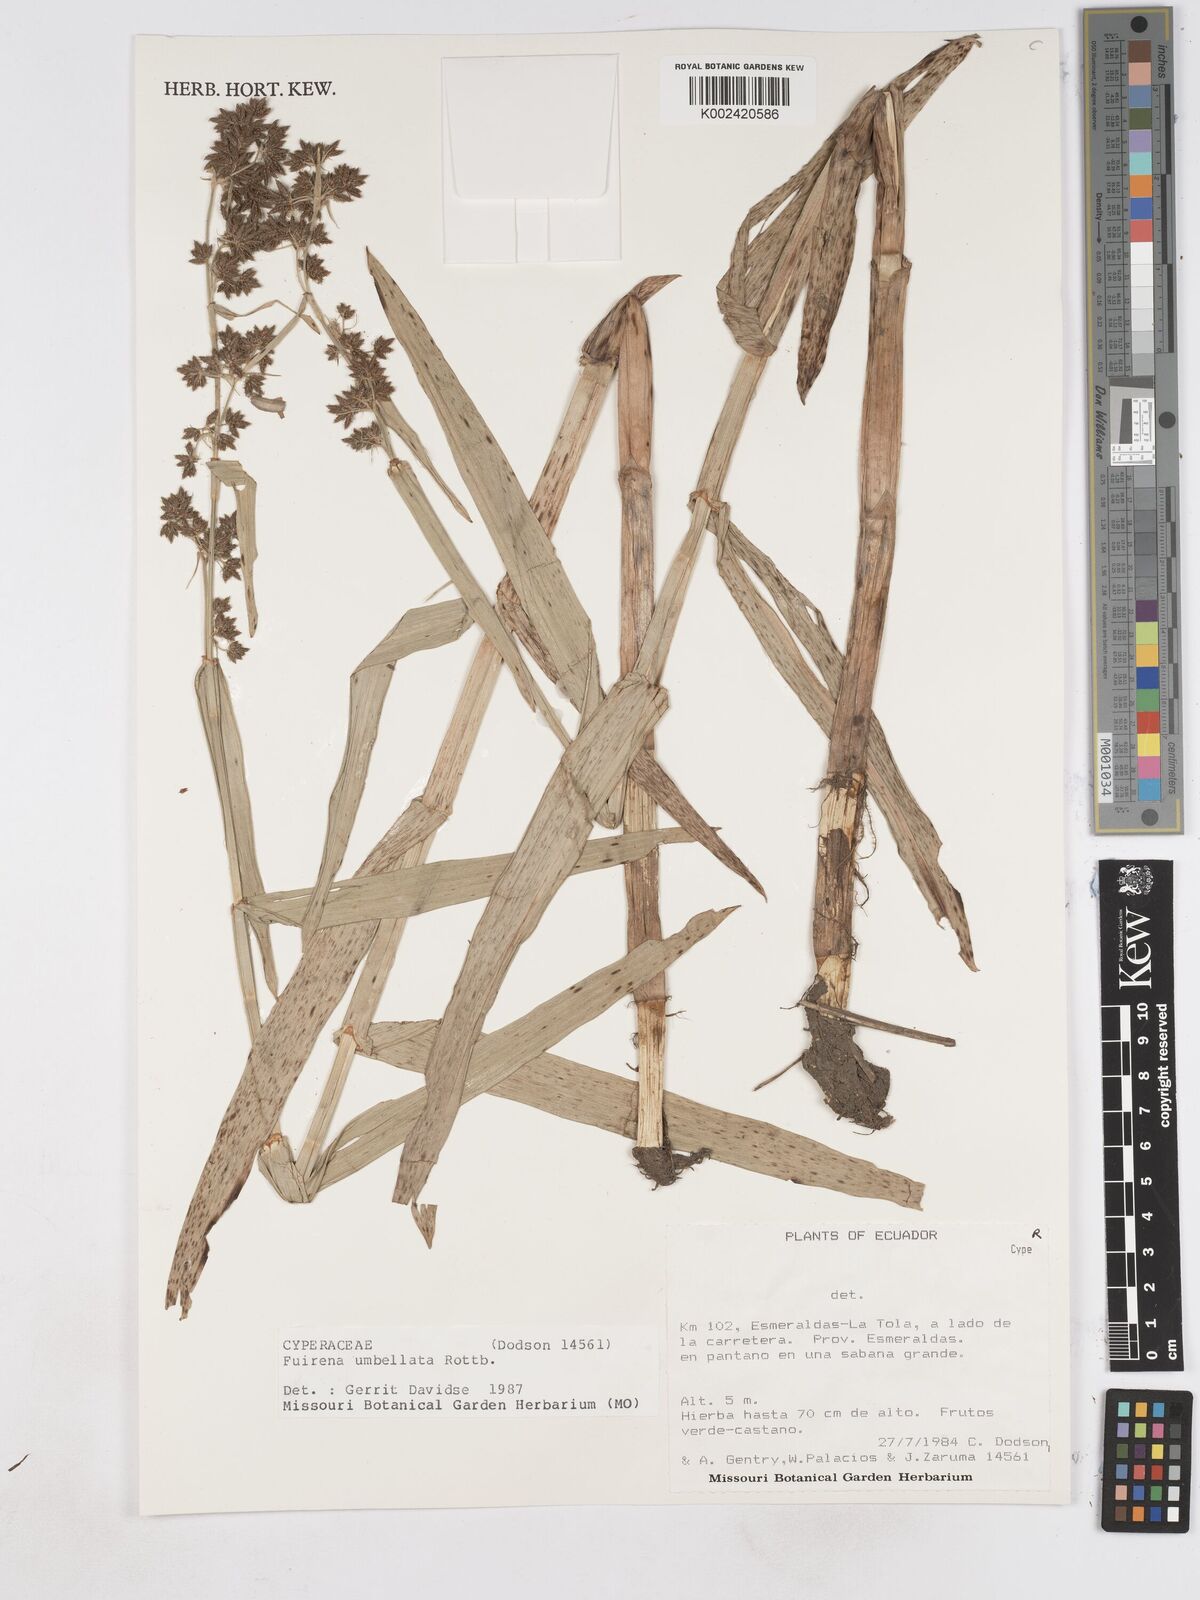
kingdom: Plantae
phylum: Tracheophyta
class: Liliopsida
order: Poales
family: Cyperaceae
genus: Fuirena
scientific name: Fuirena umbellata
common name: Yefen
